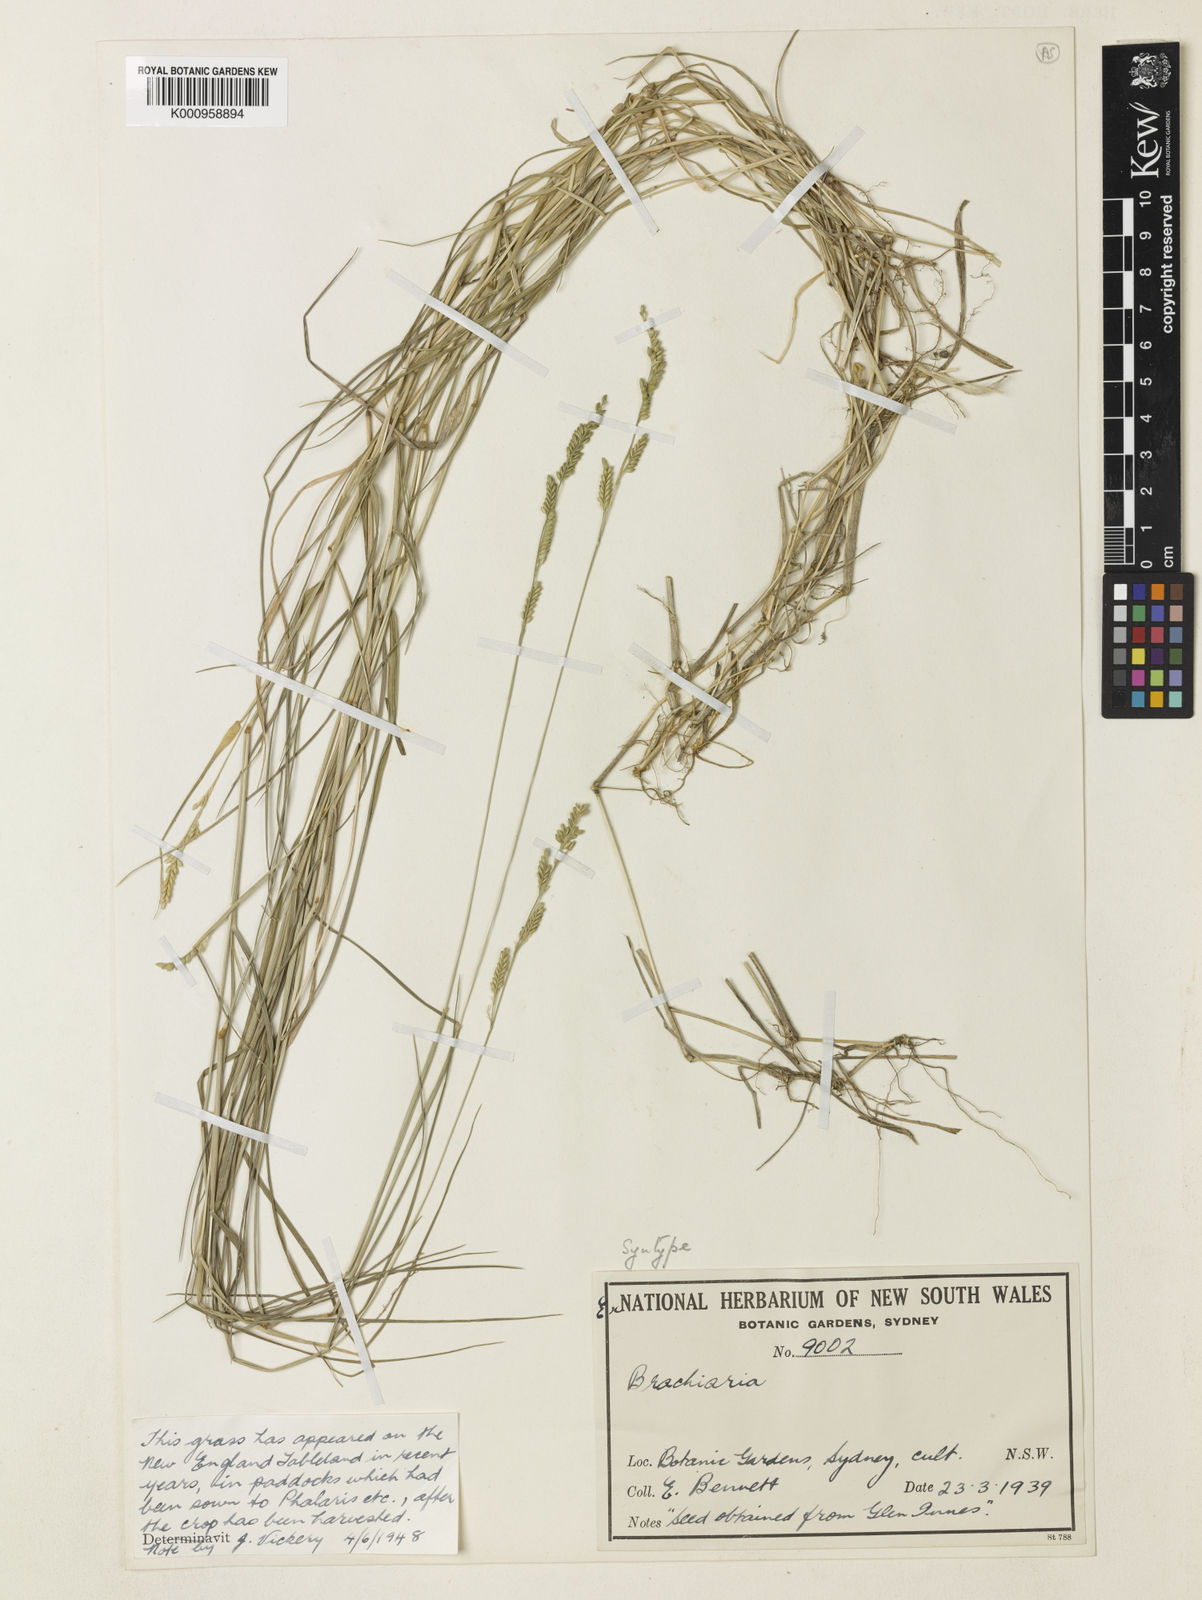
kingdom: Plantae
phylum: Tracheophyta
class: Liliopsida
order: Poales
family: Poaceae
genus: Urochloa
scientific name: Urochloa advena
